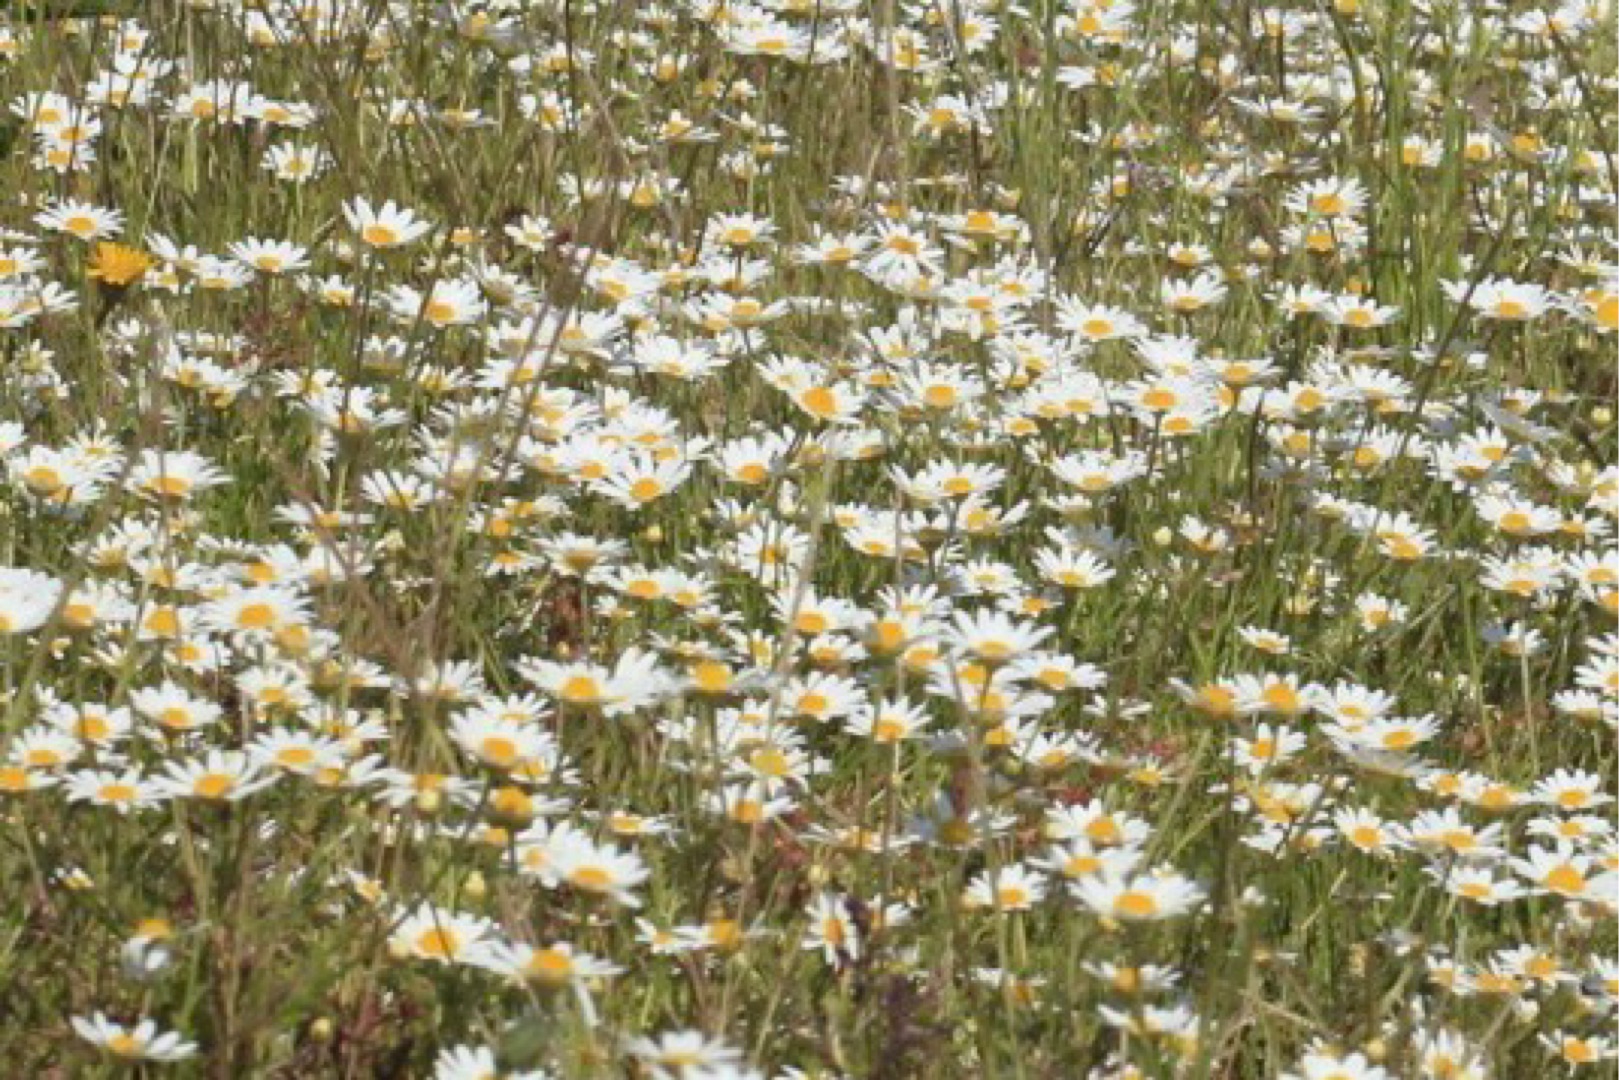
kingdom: Plantae
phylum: Tracheophyta
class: Magnoliopsida
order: Asterales
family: Asteraceae
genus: Anthemis
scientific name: Anthemis arvensis
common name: Ager-gåseurt
